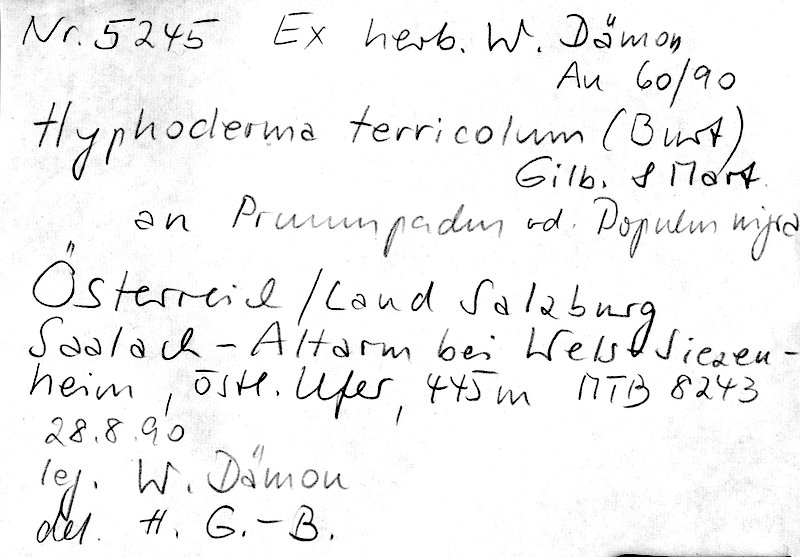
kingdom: Fungi
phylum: Basidiomycota
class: Agaricomycetes
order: Polyporales
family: Meruliaceae
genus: Conohypha
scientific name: Conohypha terricola
